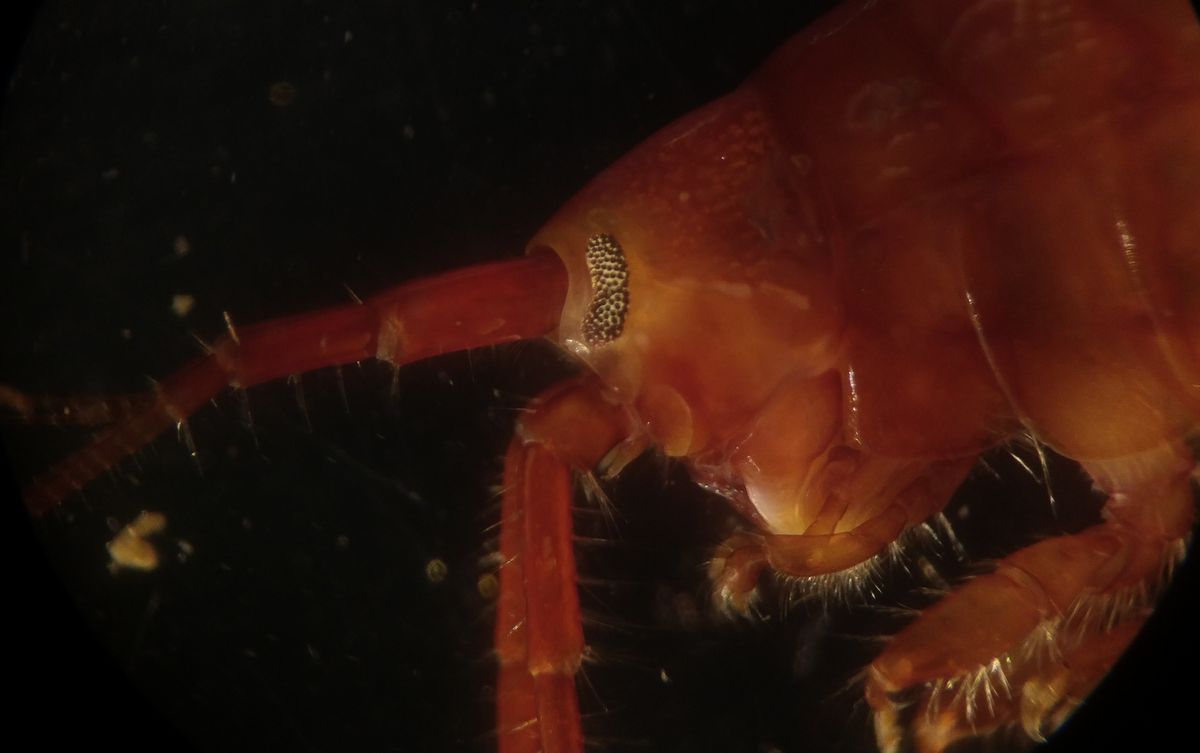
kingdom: Animalia
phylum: Arthropoda
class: Malacostraca
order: Amphipoda
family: Gammaridae
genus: Gammarus
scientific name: Gammarus oceanicus
